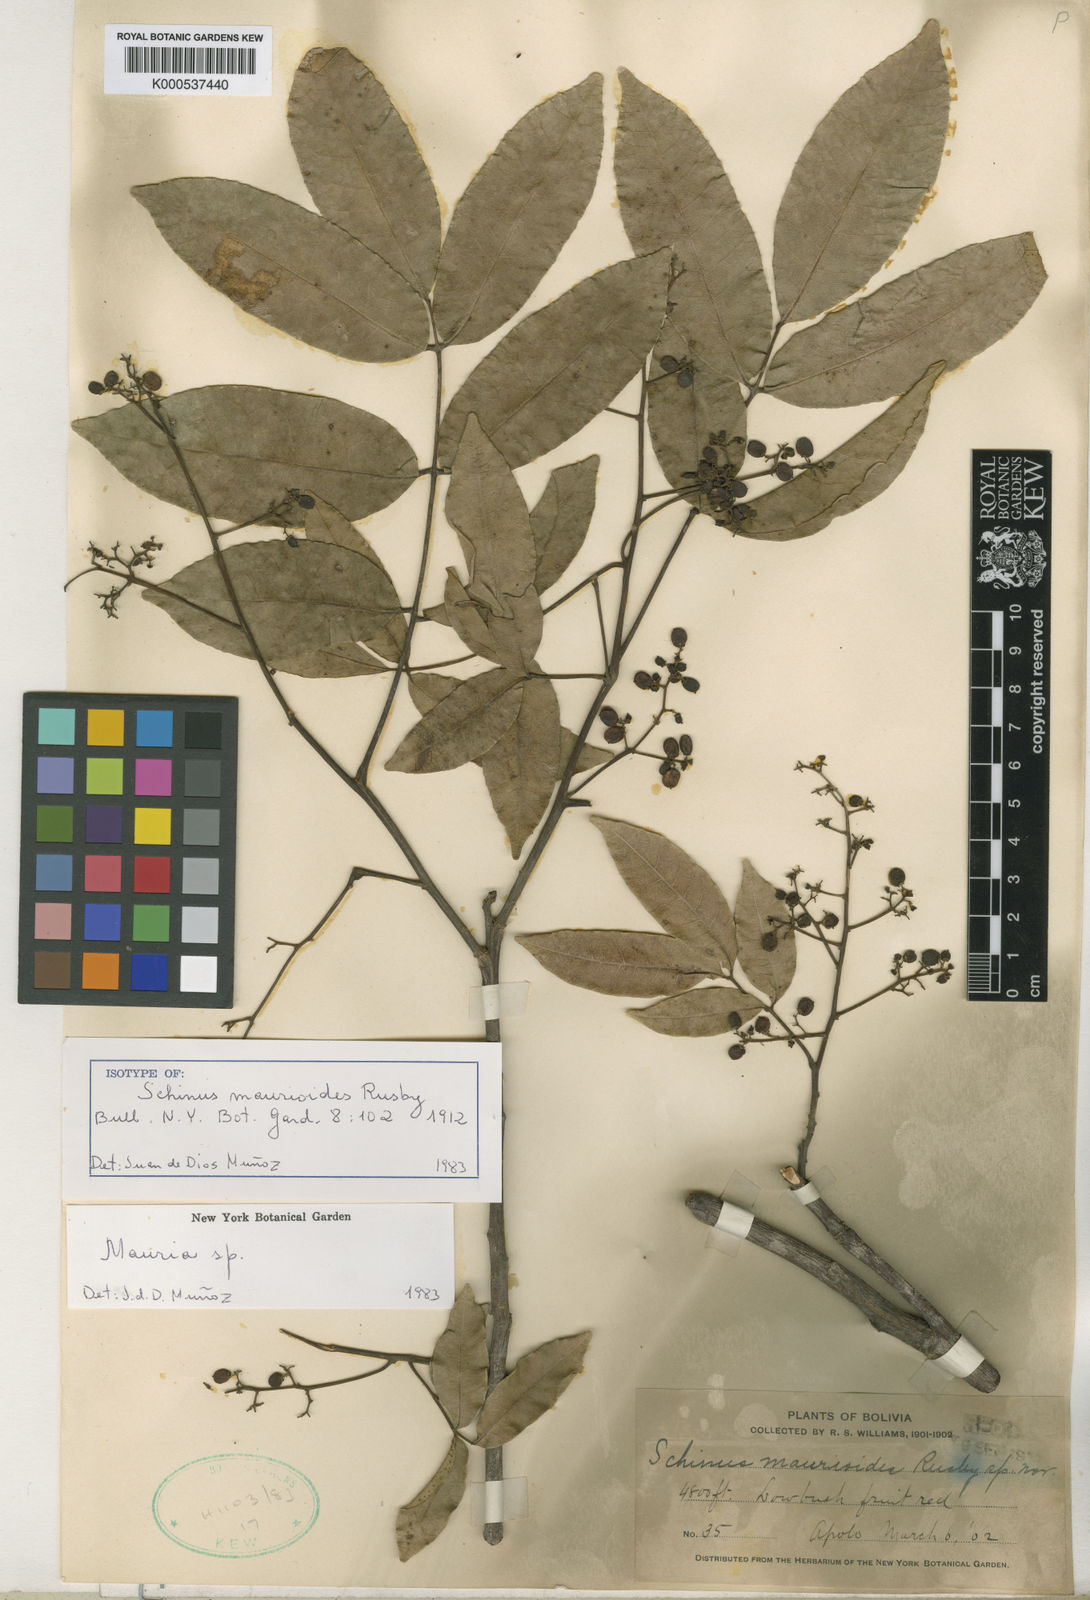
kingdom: Plantae
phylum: Tracheophyta
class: Magnoliopsida
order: Sapindales
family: Anacardiaceae
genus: Mauria
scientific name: Mauria heterophylla
